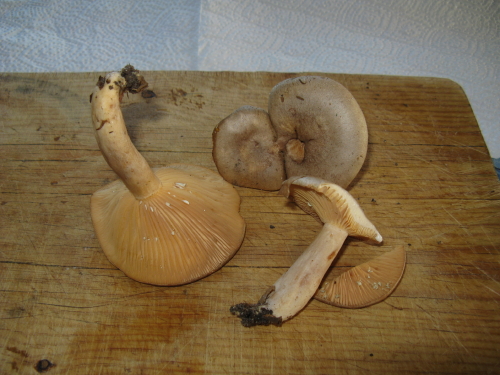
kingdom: Fungi
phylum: Basidiomycota
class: Agaricomycetes
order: Russulales
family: Russulaceae
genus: Lactarius
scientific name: Lactarius pyrogalus
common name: hassel-mælkehat
